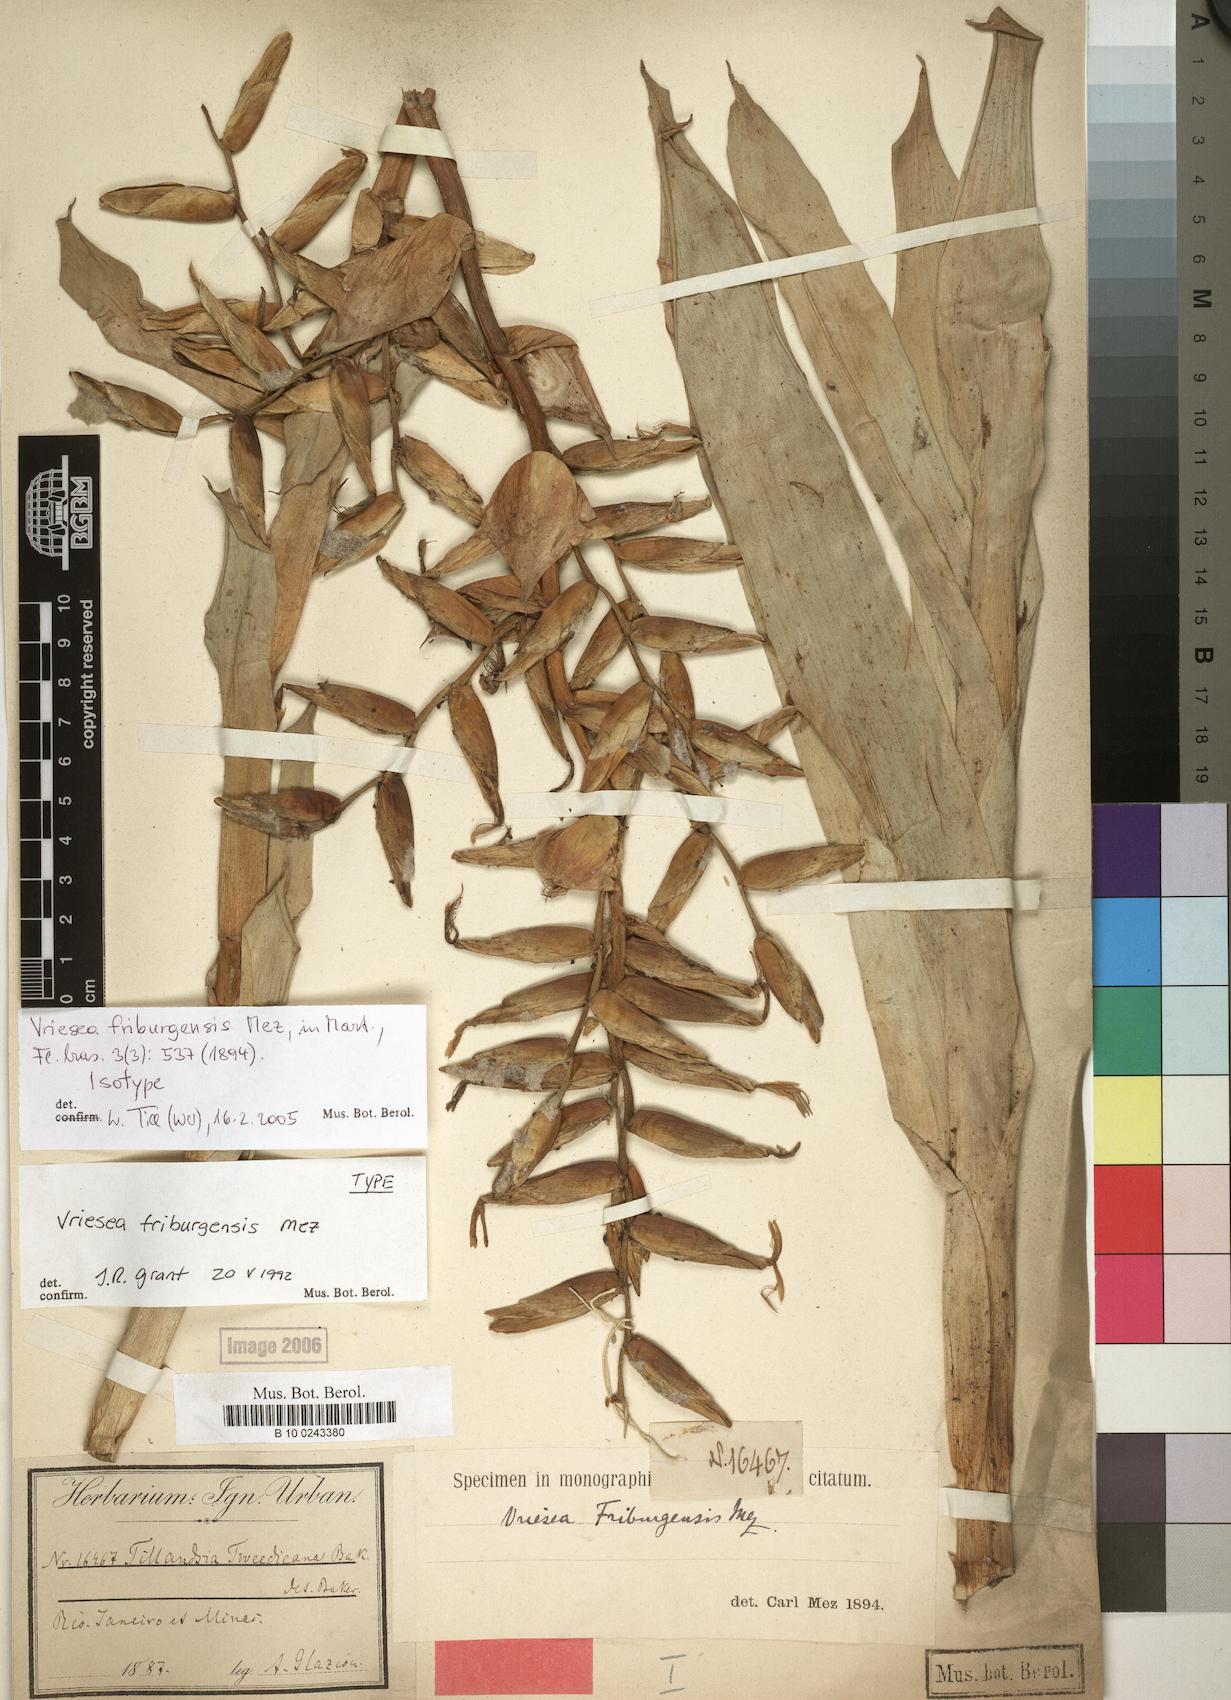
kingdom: Plantae
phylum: Tracheophyta
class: Liliopsida
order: Poales
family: Bromeliaceae
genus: Vriesea
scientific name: Vriesea friburgensis
